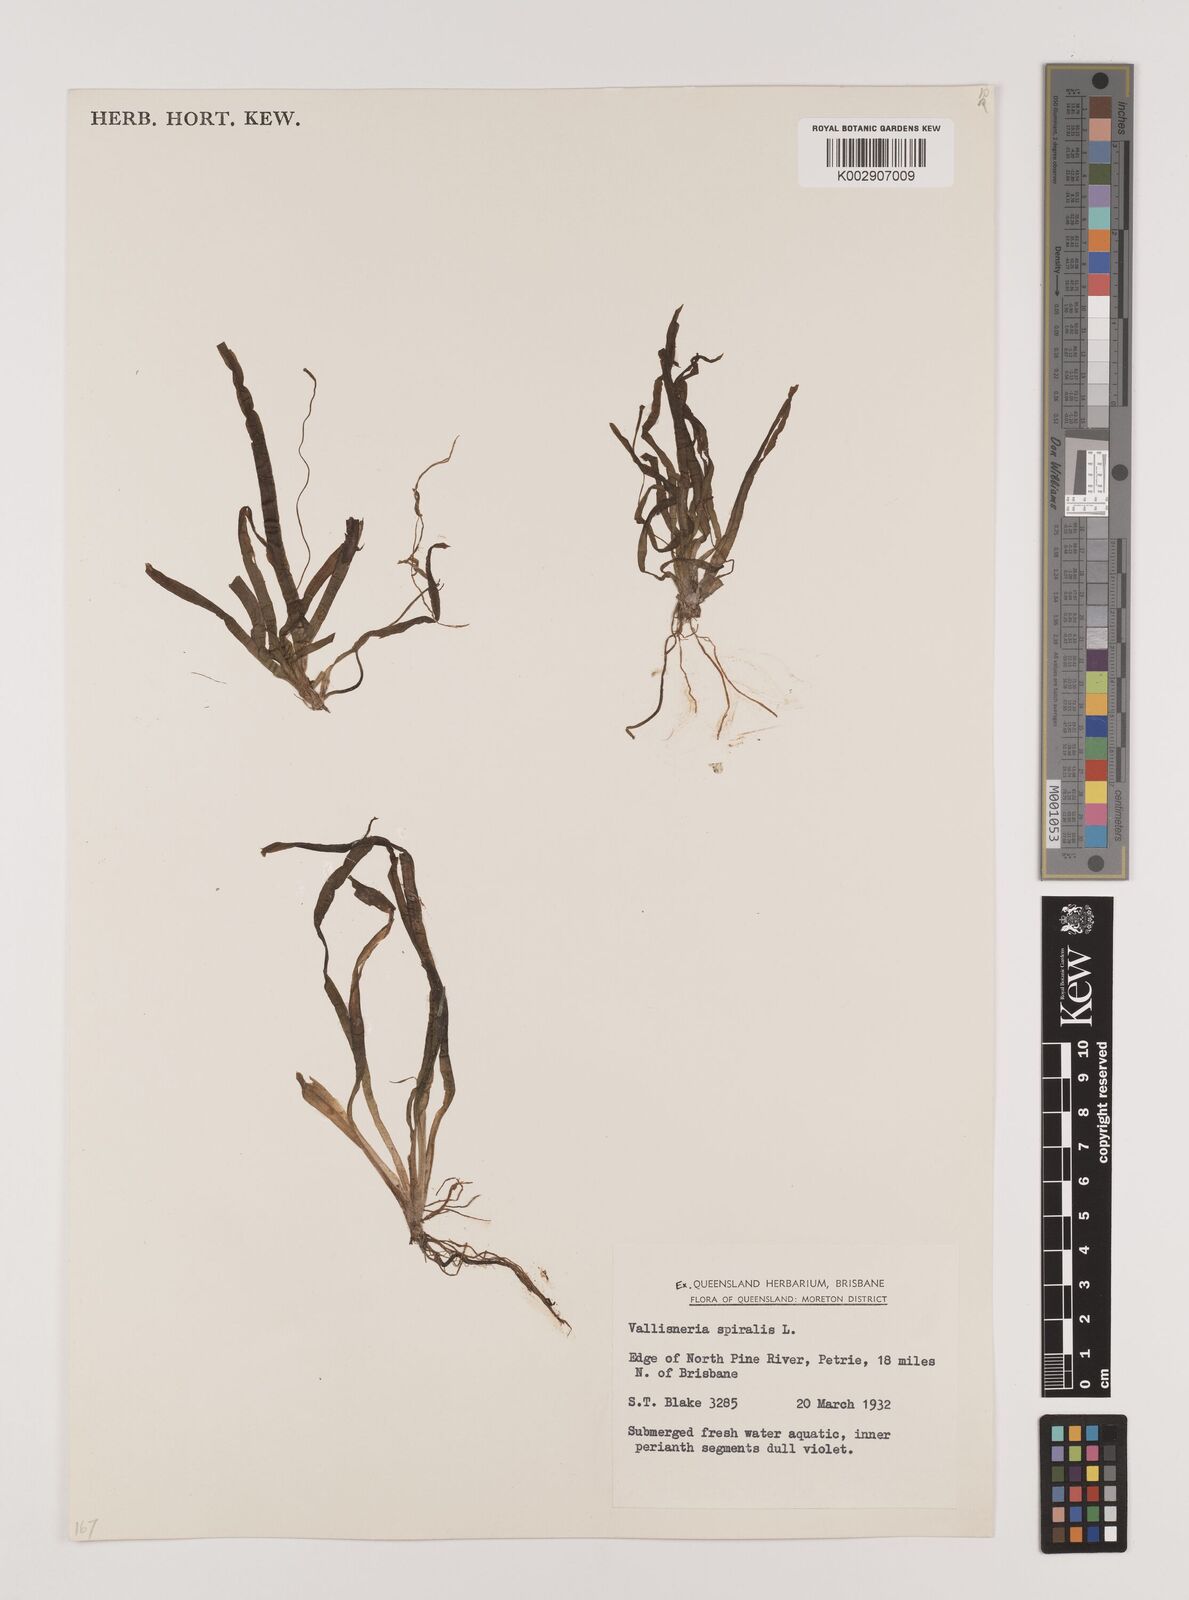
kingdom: Plantae
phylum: Tracheophyta
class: Liliopsida
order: Alismatales
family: Hydrocharitaceae
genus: Vallisneria
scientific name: Vallisneria spiralis
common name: Tapegrass
